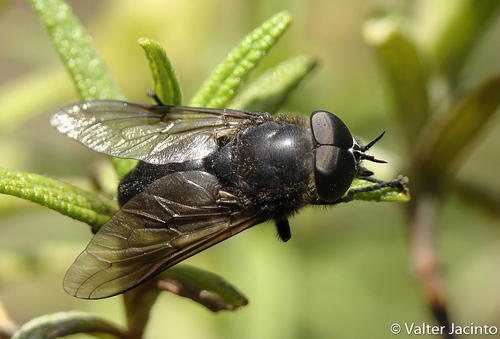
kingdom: Animalia
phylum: Arthropoda
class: Insecta
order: Diptera
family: Tabanidae
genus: Dasyrhamphis
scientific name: Dasyrhamphis ater
